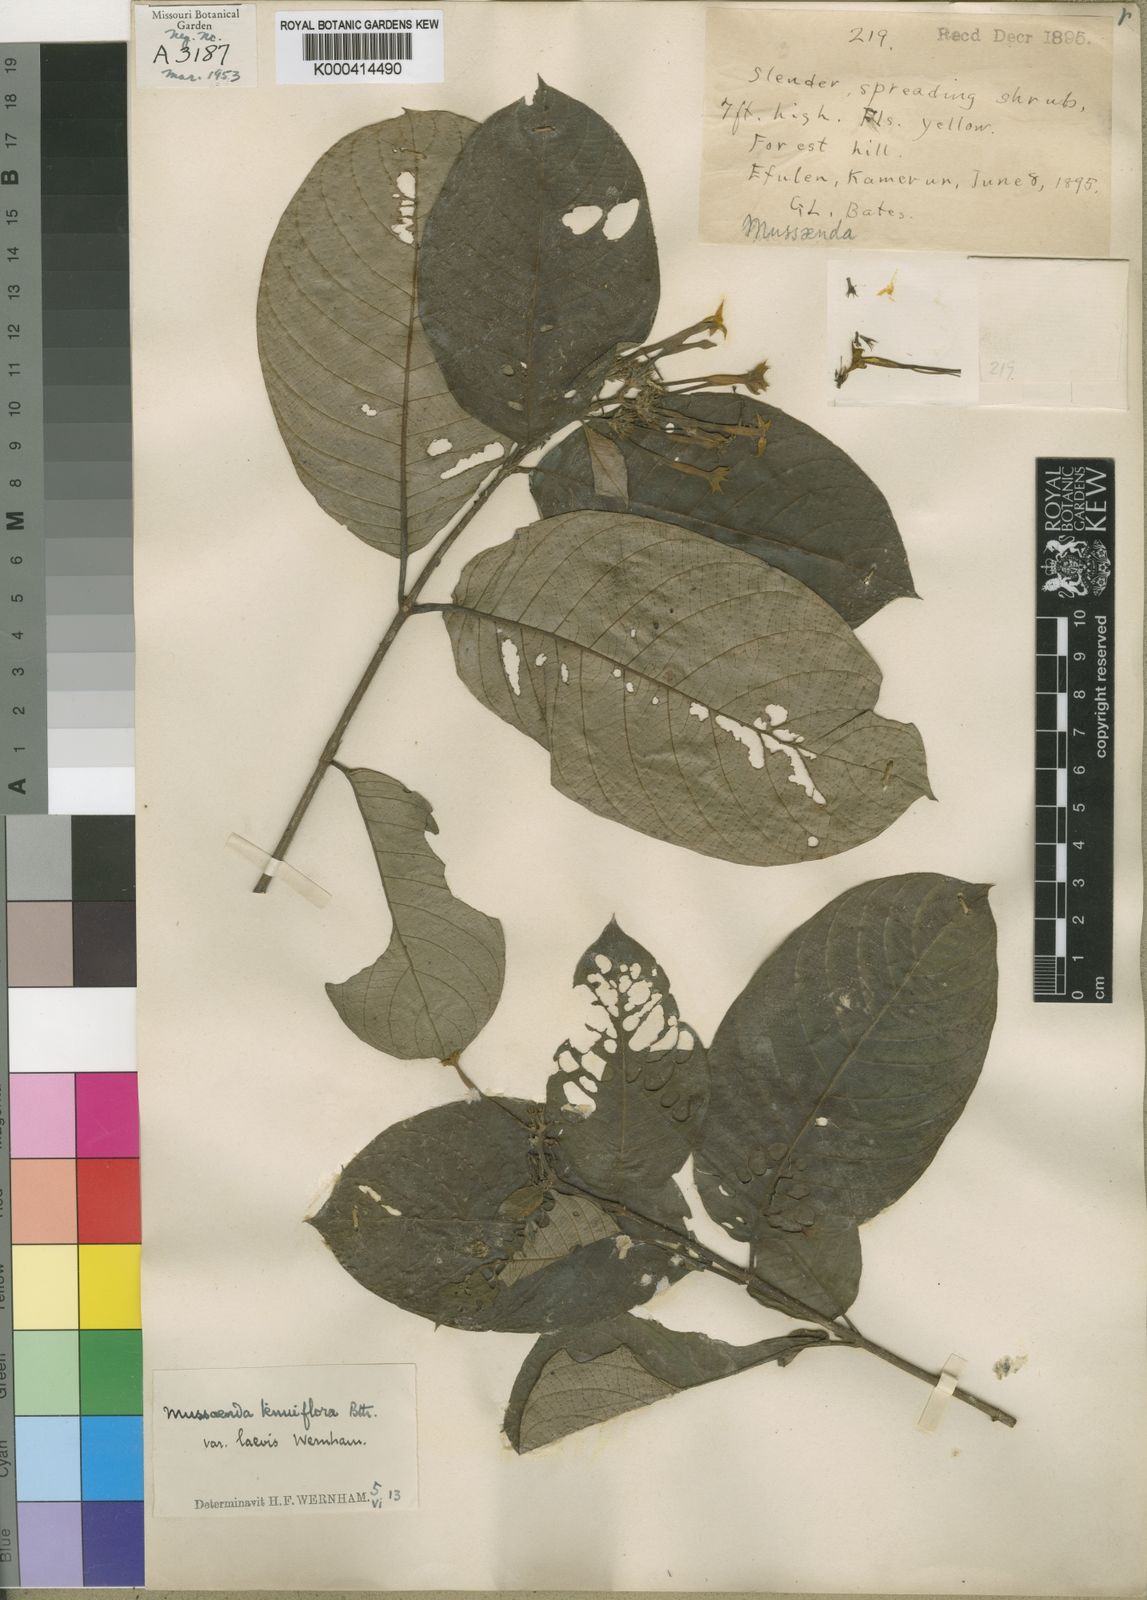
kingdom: Plantae
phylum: Tracheophyta
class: Magnoliopsida
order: Gentianales
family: Rubiaceae
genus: Mussaenda
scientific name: Mussaenda tenuiflora
